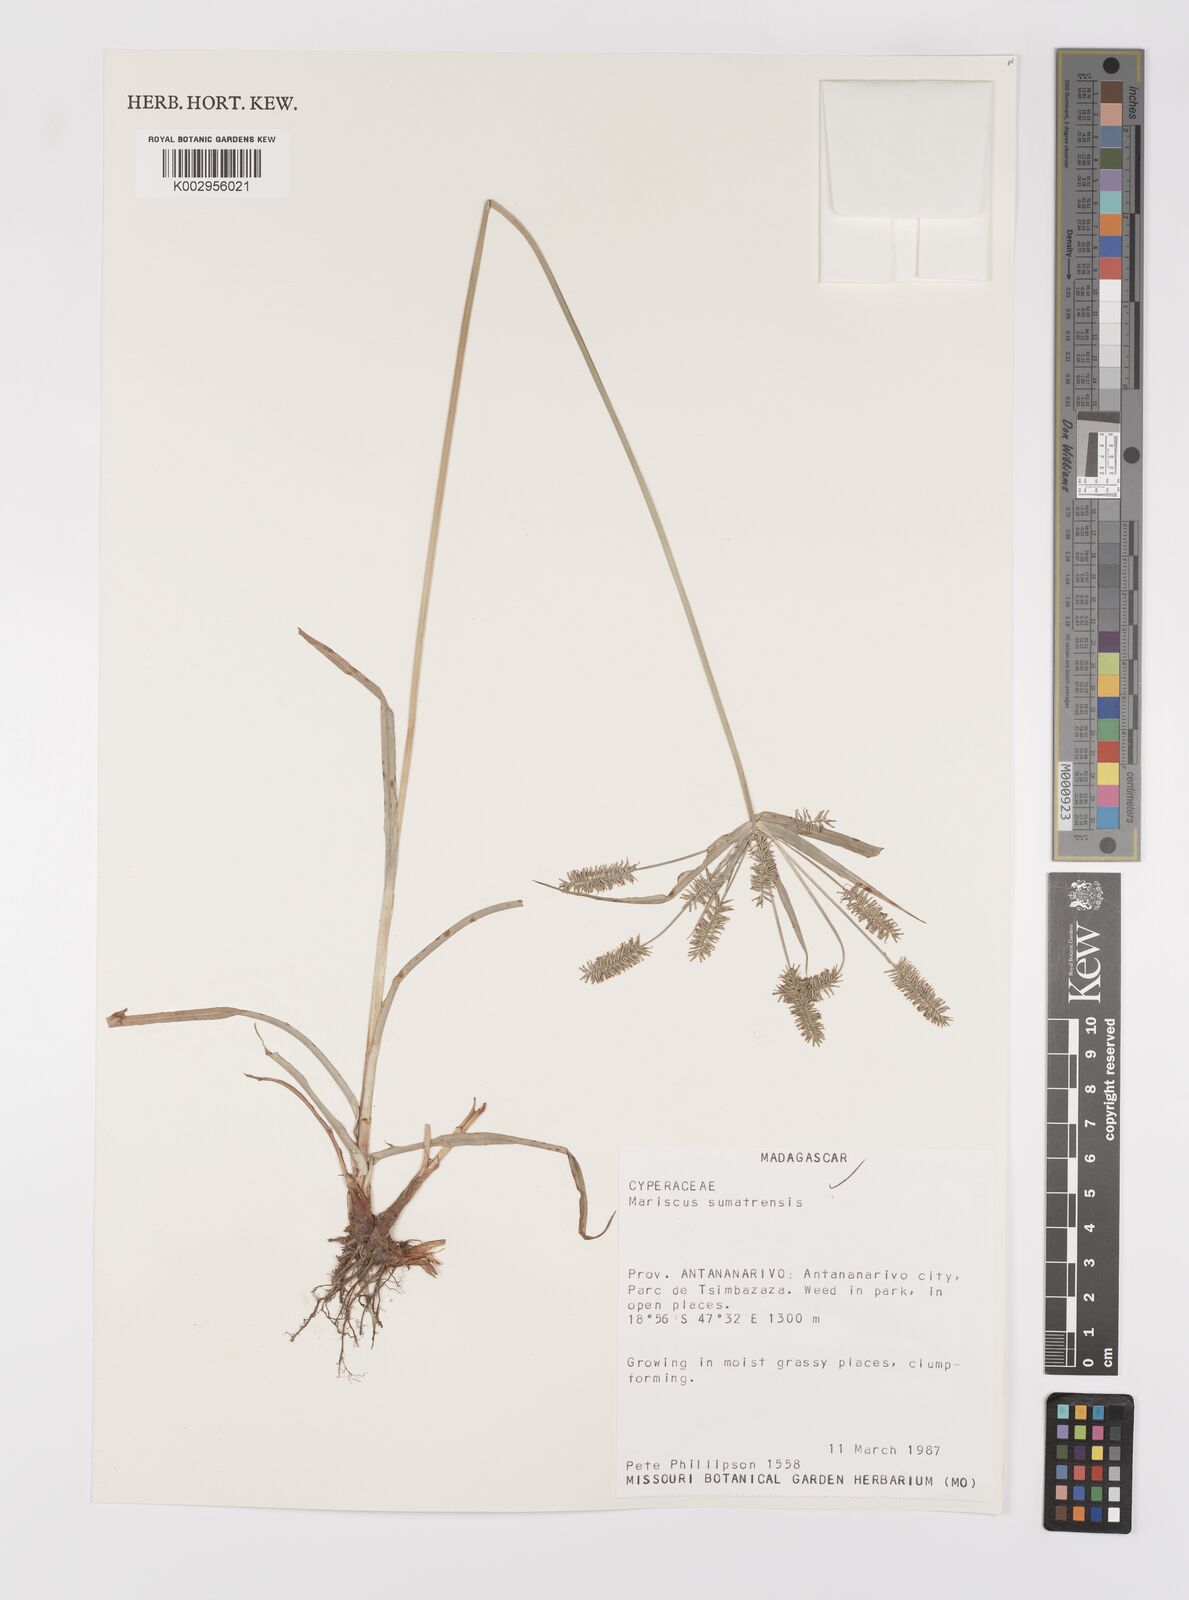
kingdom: Plantae
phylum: Tracheophyta
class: Liliopsida
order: Poales
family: Cyperaceae
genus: Cyperus
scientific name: Cyperus cyperoides
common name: Pacific island flat sedge
